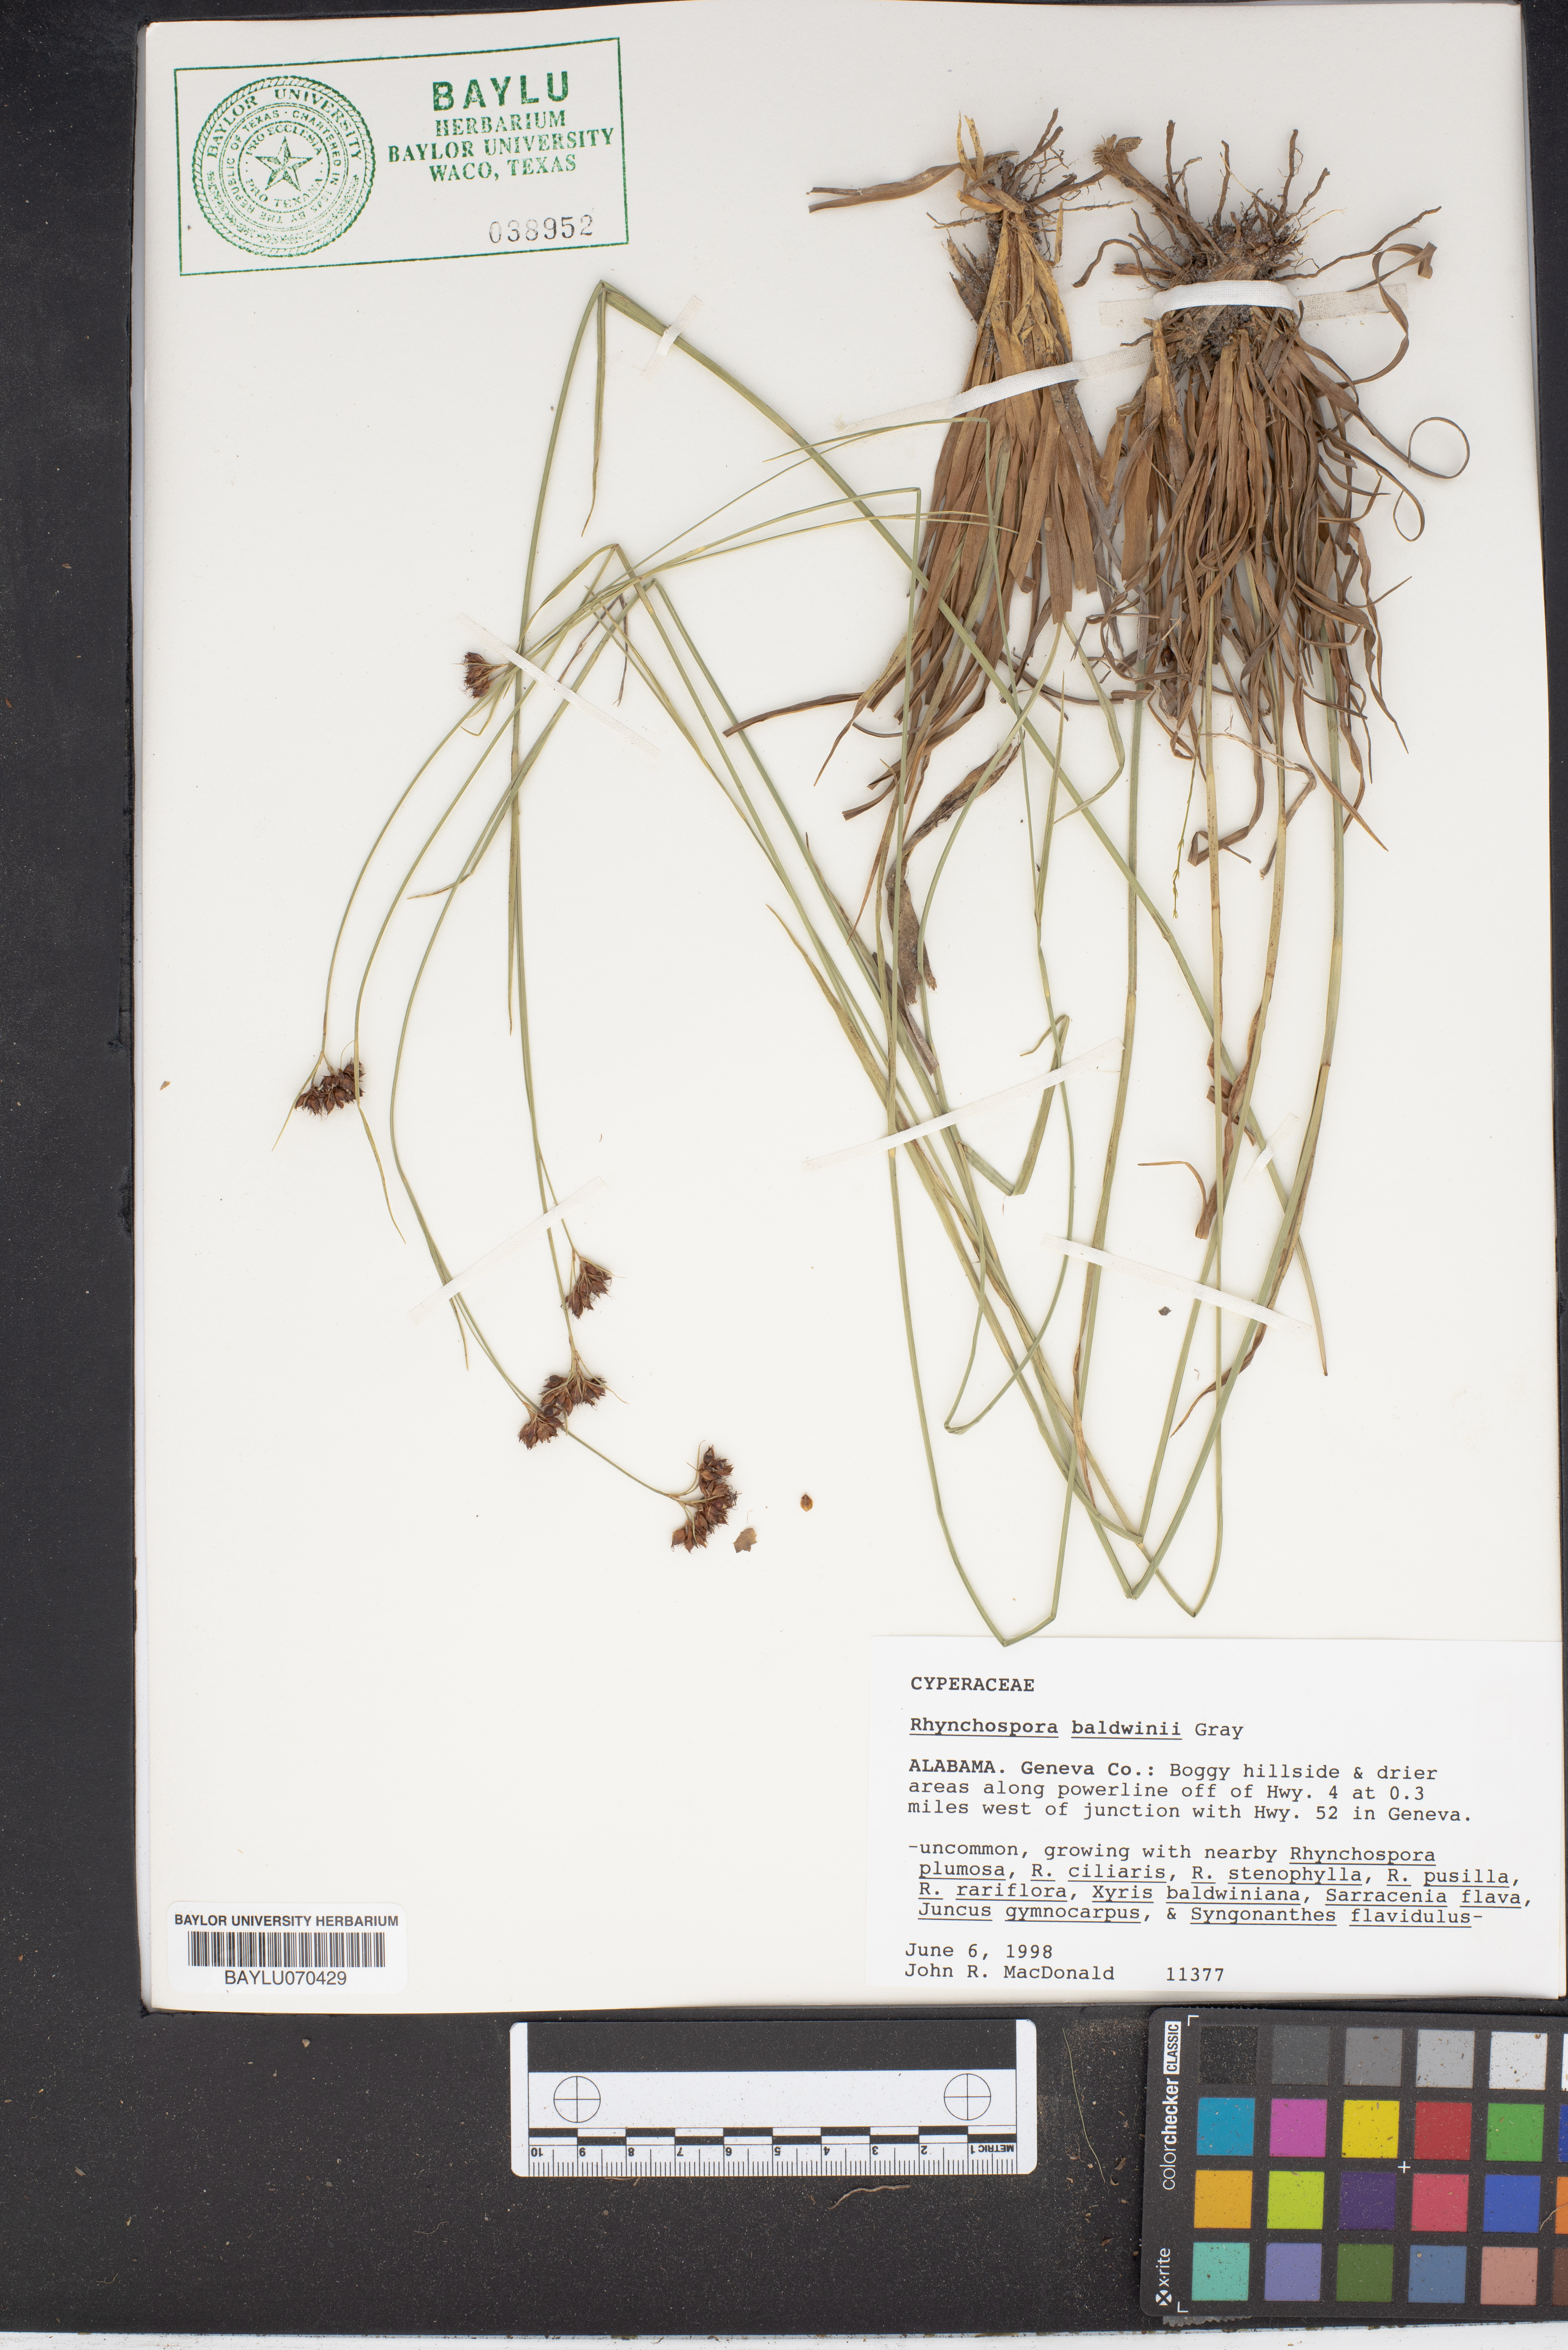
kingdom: Plantae
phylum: Tracheophyta
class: Liliopsida
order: Poales
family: Cyperaceae
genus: Rhynchospora
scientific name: Rhynchospora baldwinii
